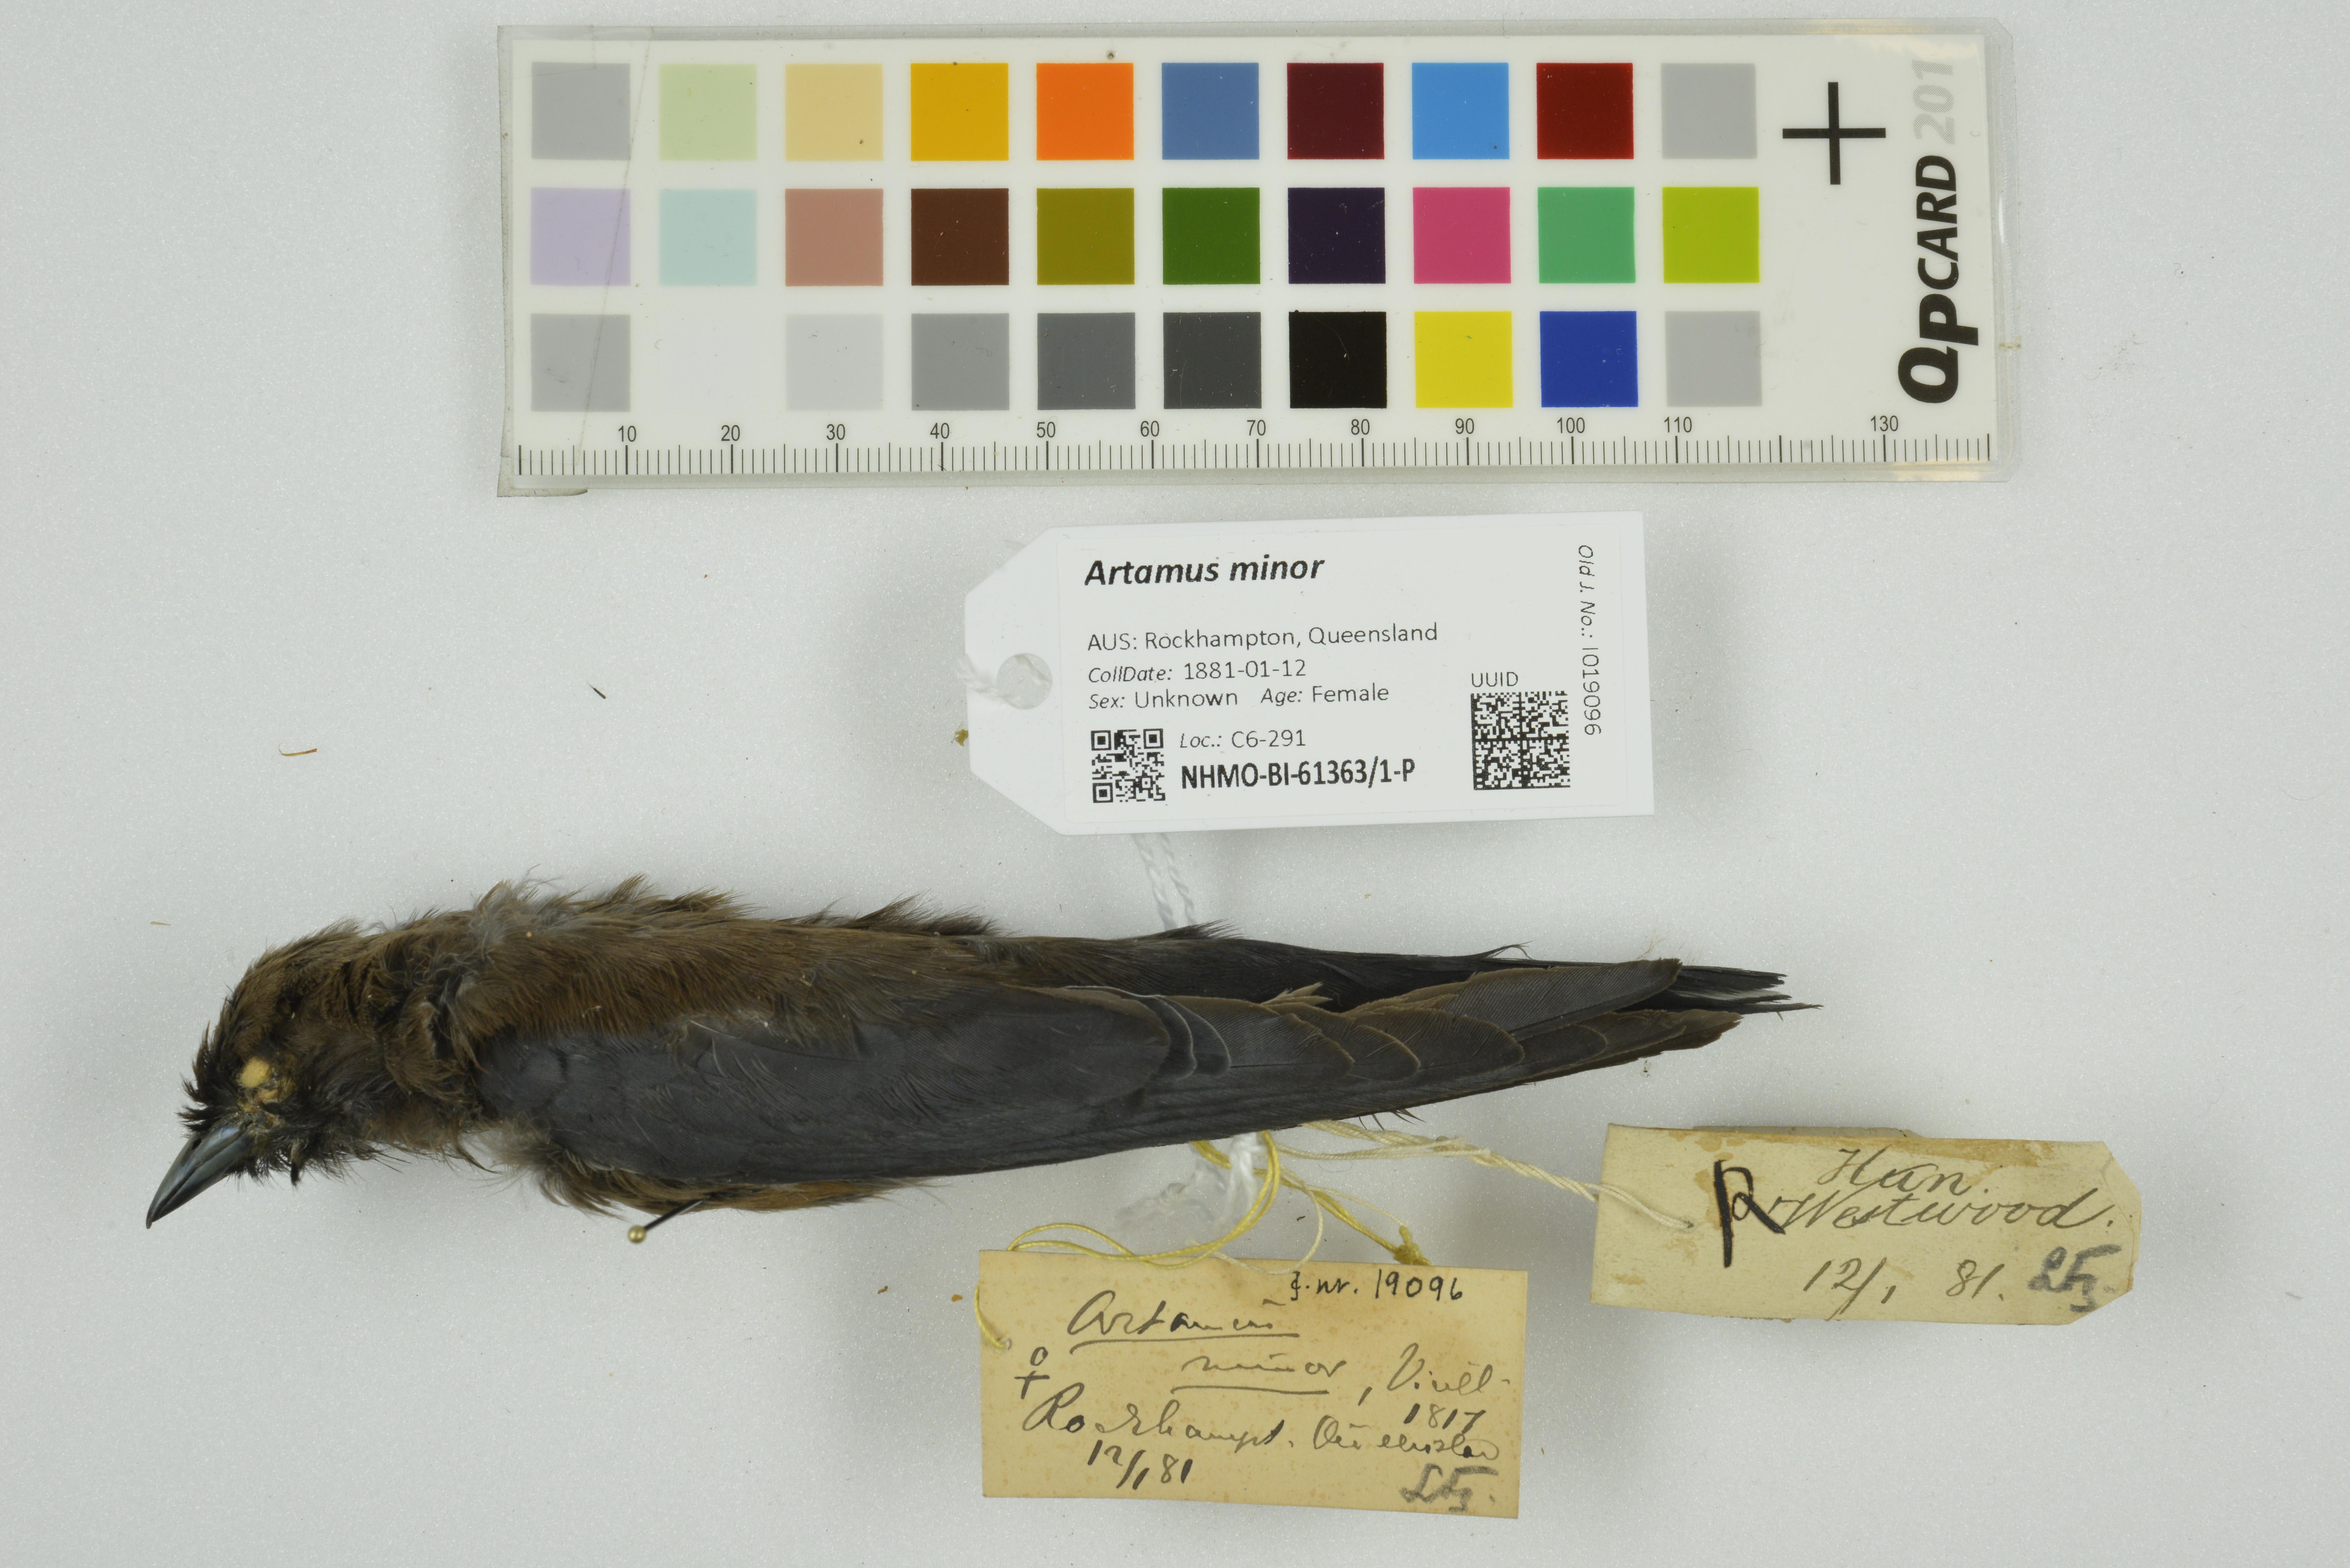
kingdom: Animalia
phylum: Chordata
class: Aves
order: Passeriformes
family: Artamidae
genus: Artamus
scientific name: Artamus minor
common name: Little woodswallow
